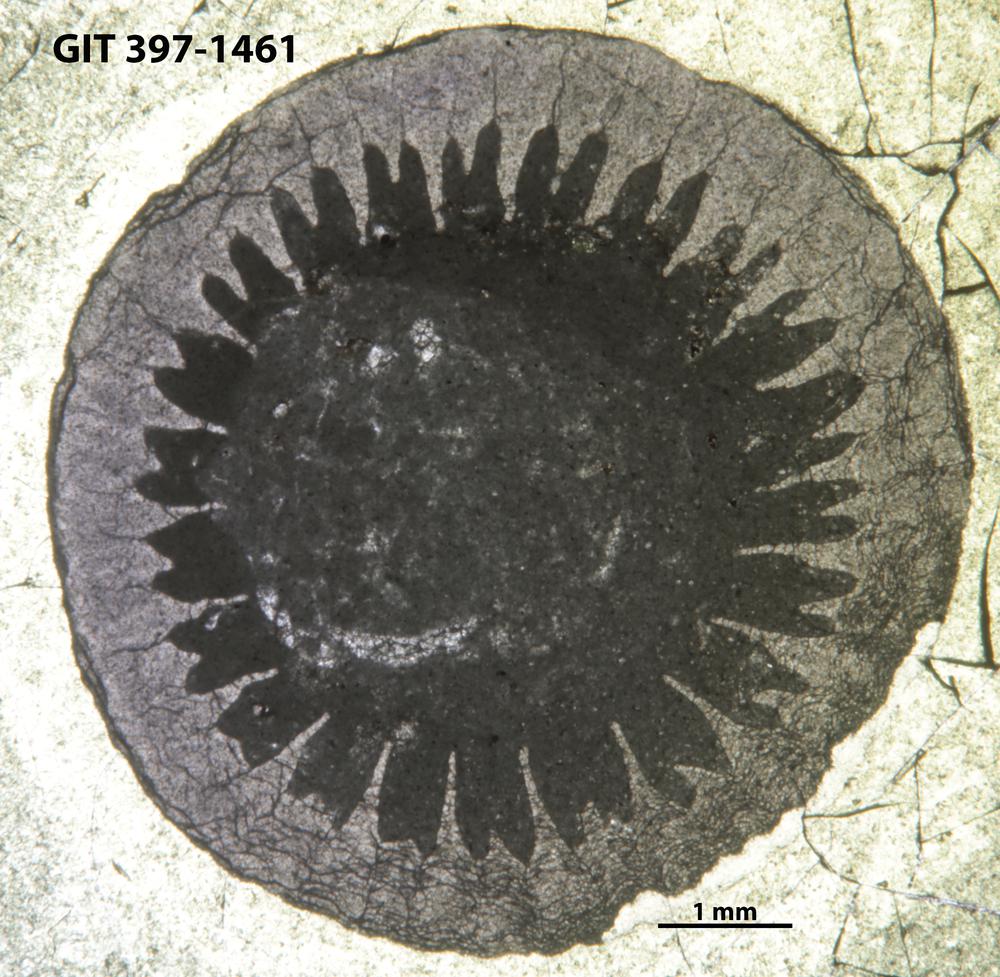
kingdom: Animalia
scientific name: Animalia
